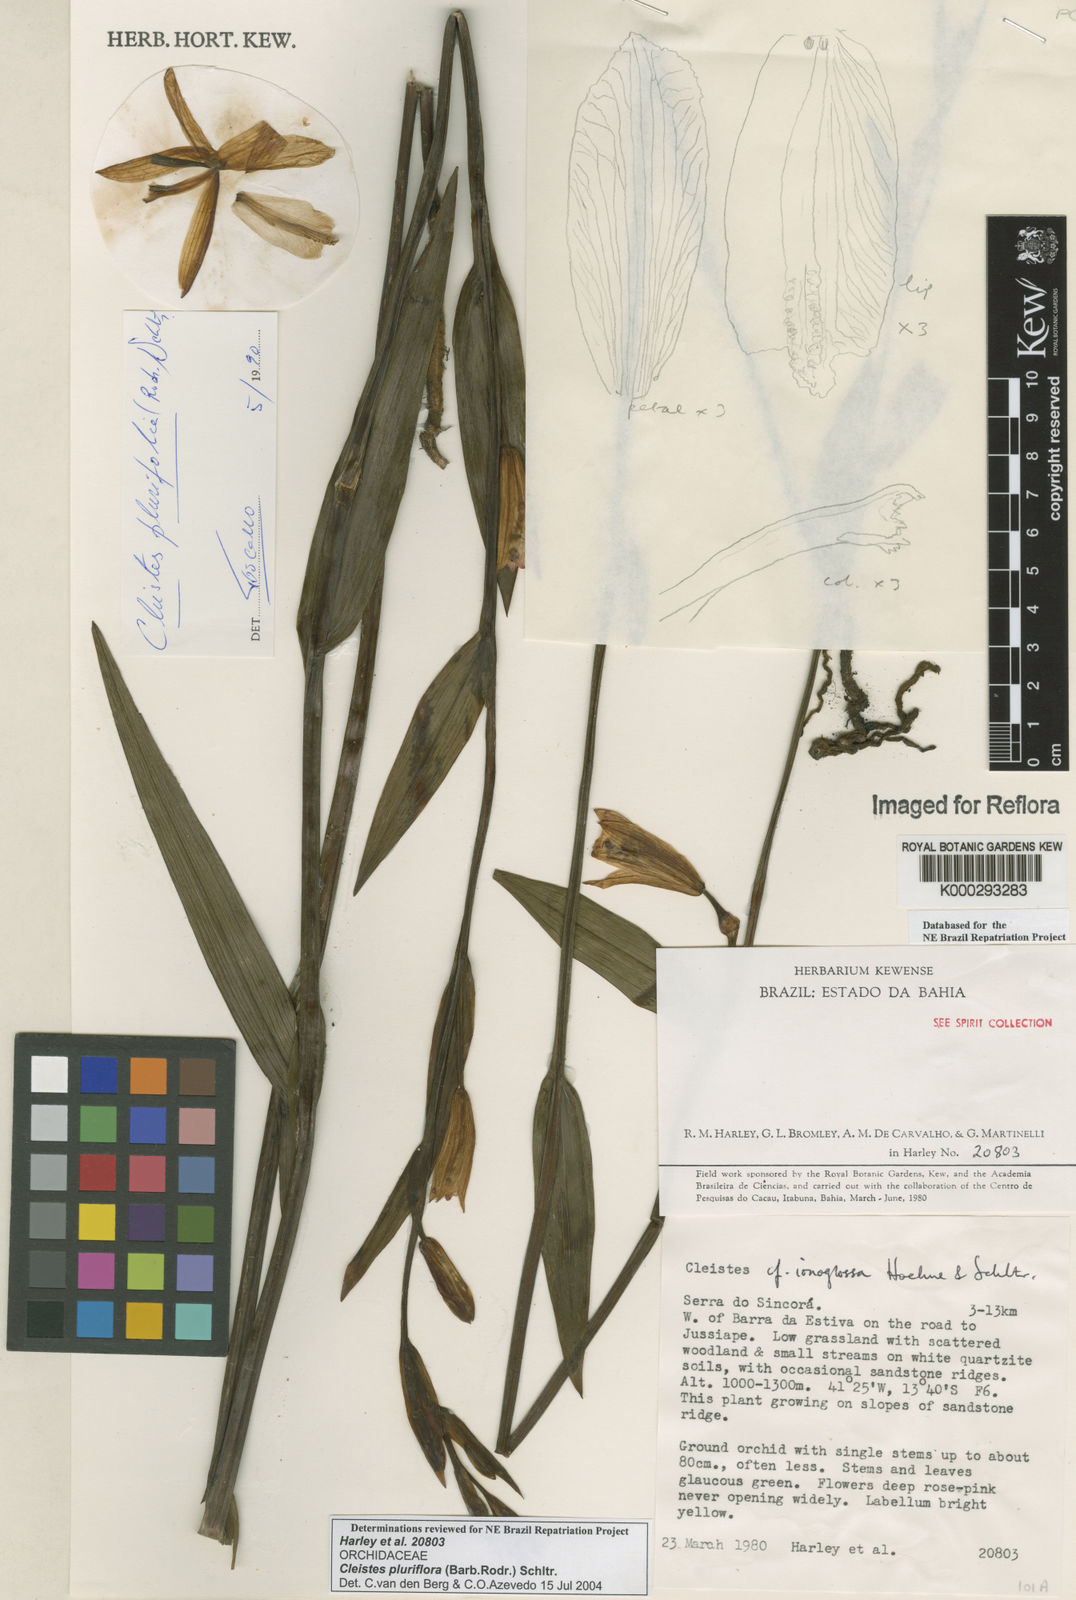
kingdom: Plantae
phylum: Tracheophyta
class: Liliopsida
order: Asparagales
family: Orchidaceae
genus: Cleistes
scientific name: Cleistes moritzii
